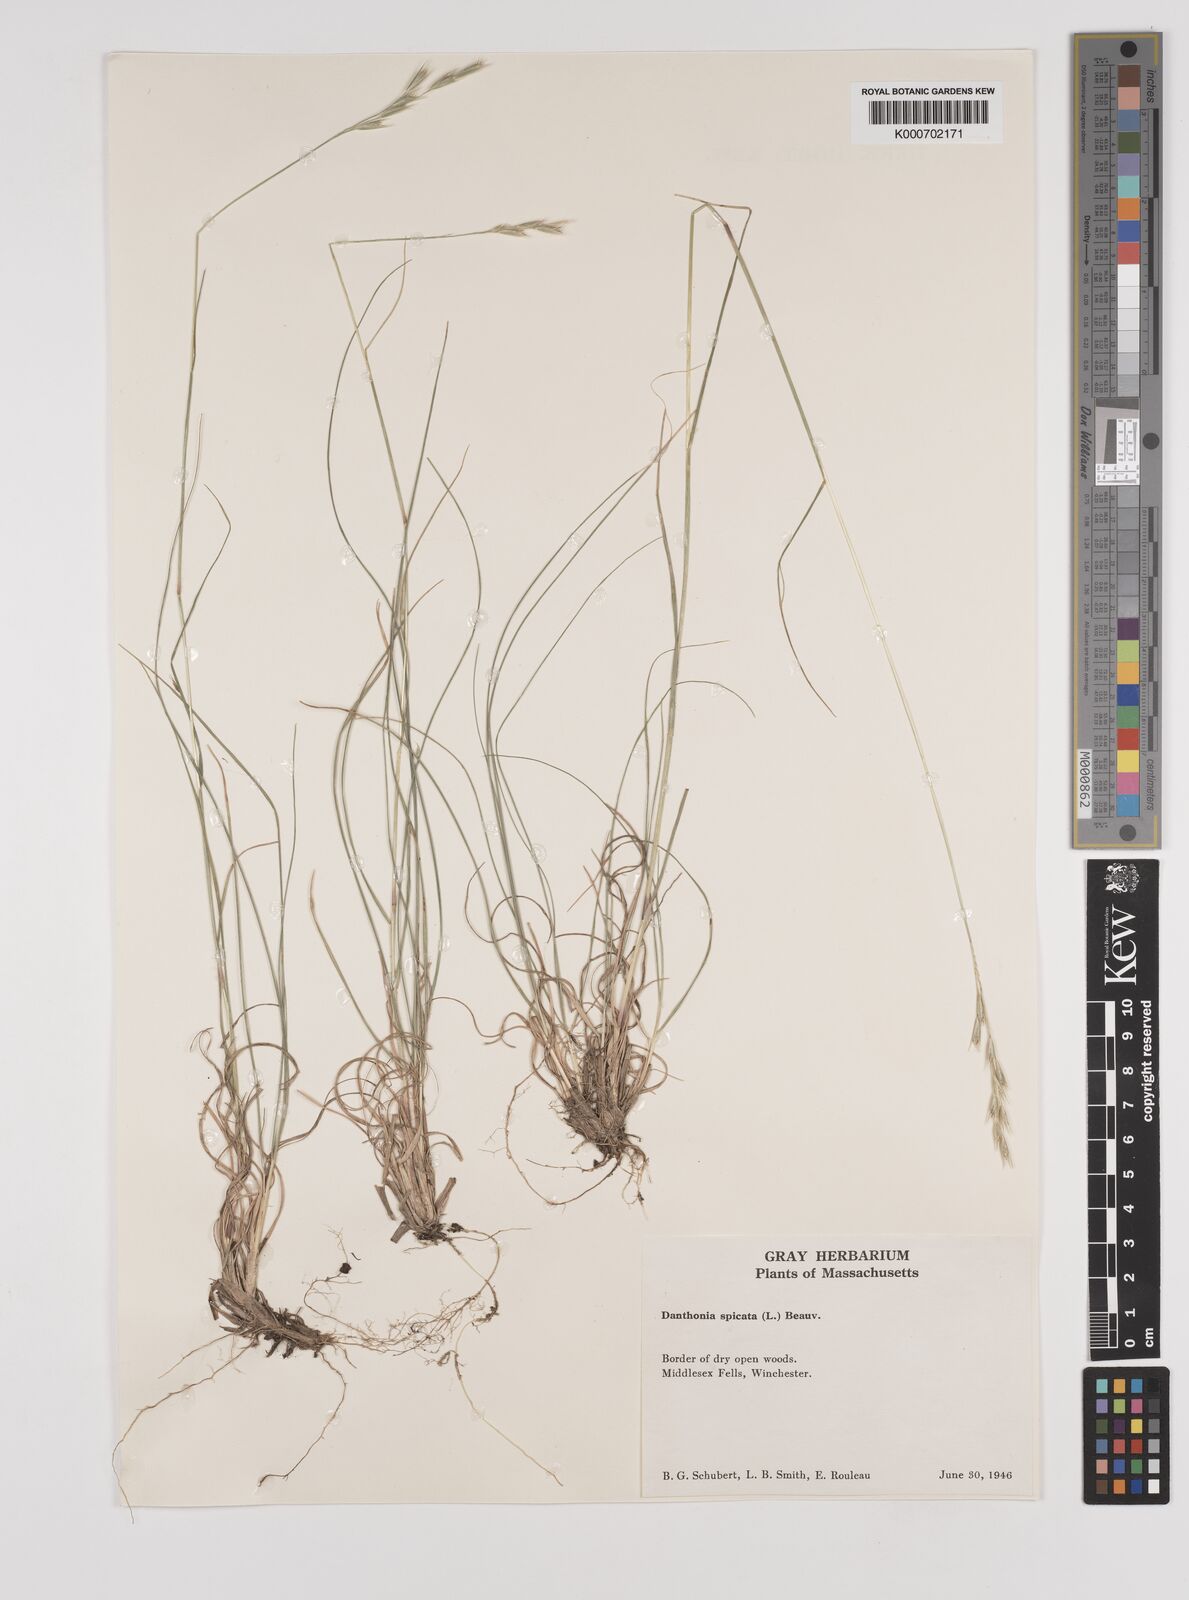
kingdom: Plantae
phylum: Tracheophyta
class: Liliopsida
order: Poales
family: Poaceae
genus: Danthonia
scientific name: Danthonia spicata
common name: Common wild oatgrass
